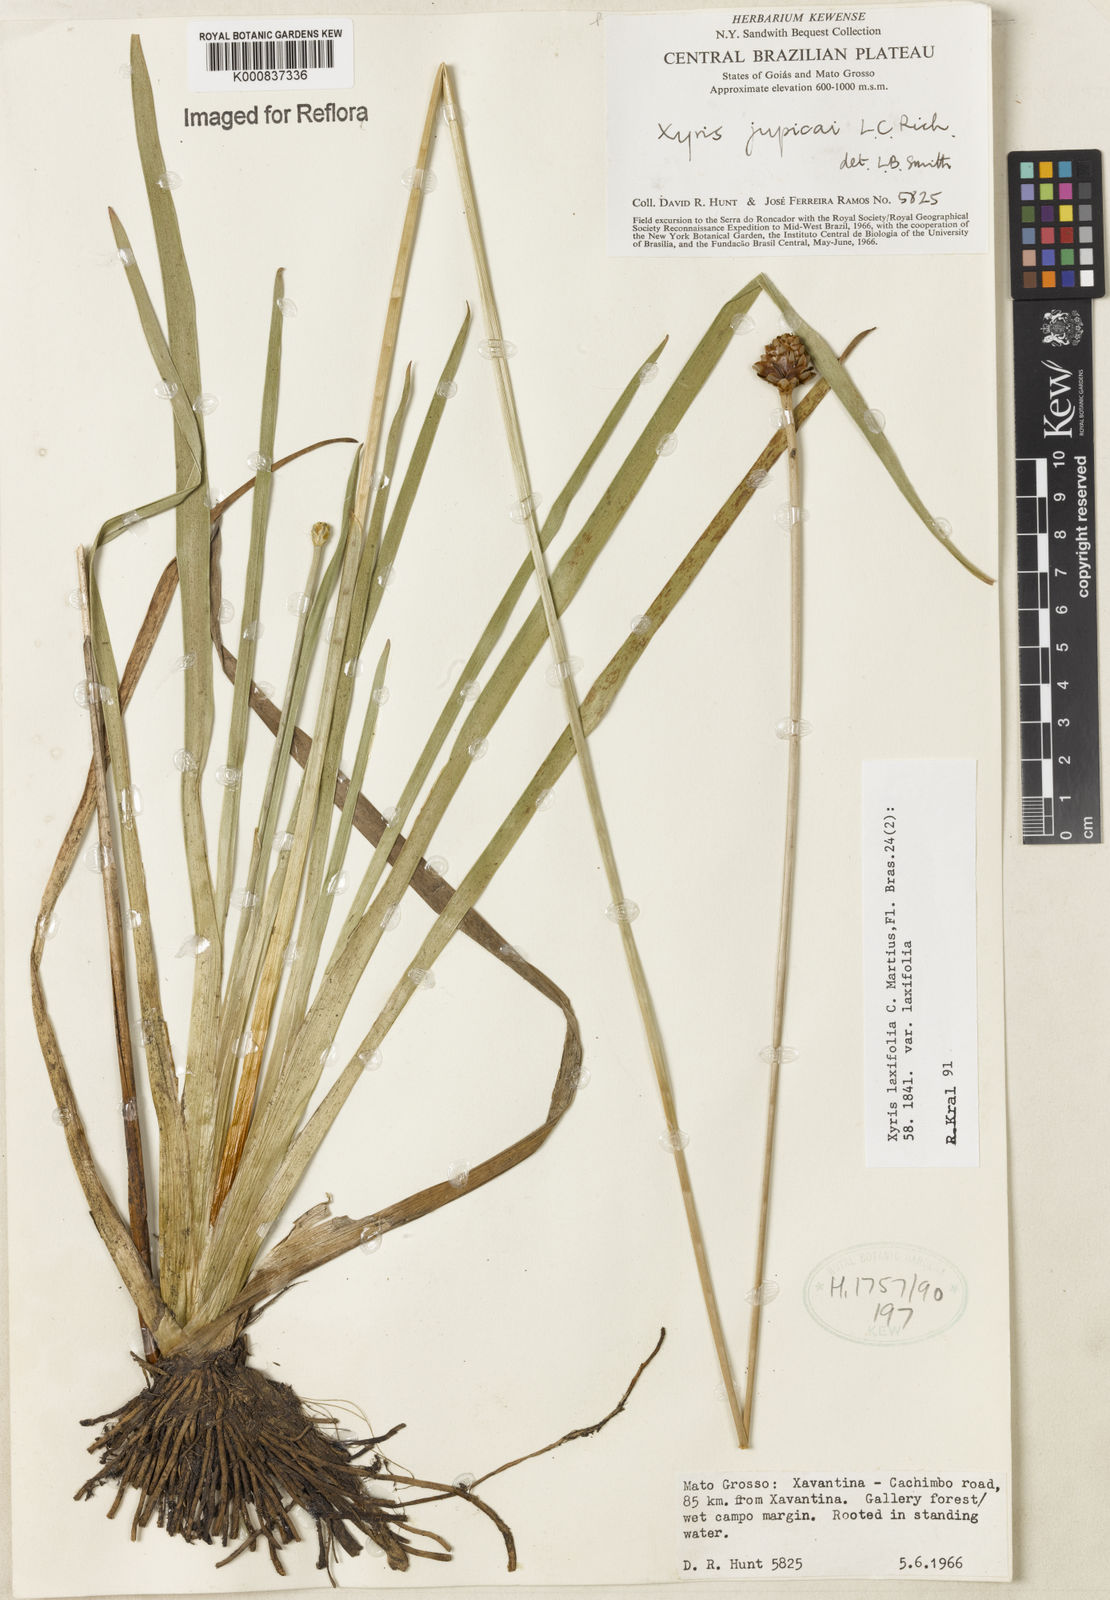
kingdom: Plantae
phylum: Tracheophyta
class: Liliopsida
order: Poales
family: Xyridaceae
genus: Xyris
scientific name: Xyris laxifolia
